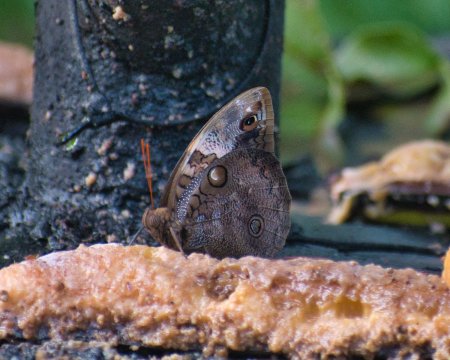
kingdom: Animalia
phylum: Arthropoda
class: Insecta
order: Lepidoptera
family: Nymphalidae
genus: Opsiphanes
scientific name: Opsiphanes cassina
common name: Split-banded Owl-Butterfly
